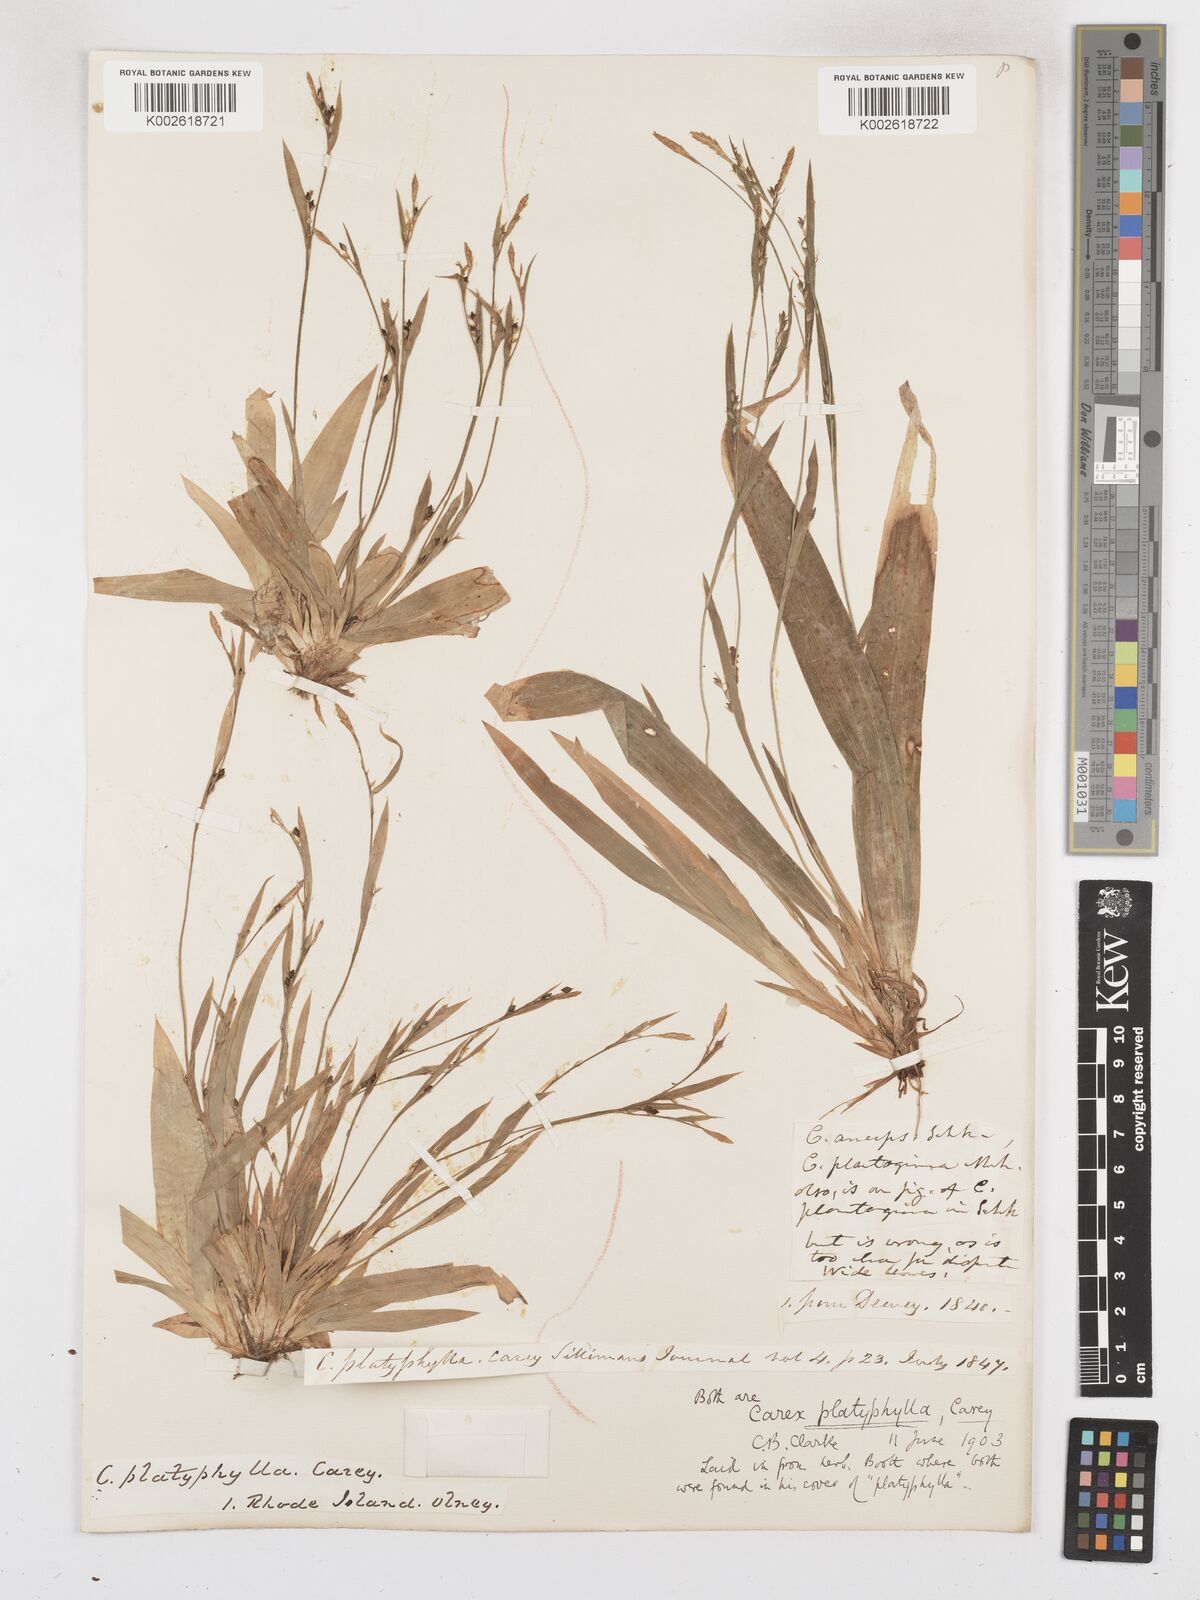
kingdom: Plantae
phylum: Tracheophyta
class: Liliopsida
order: Poales
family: Cyperaceae
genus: Carex
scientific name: Carex platyphylla
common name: Broad-leaved sedge
